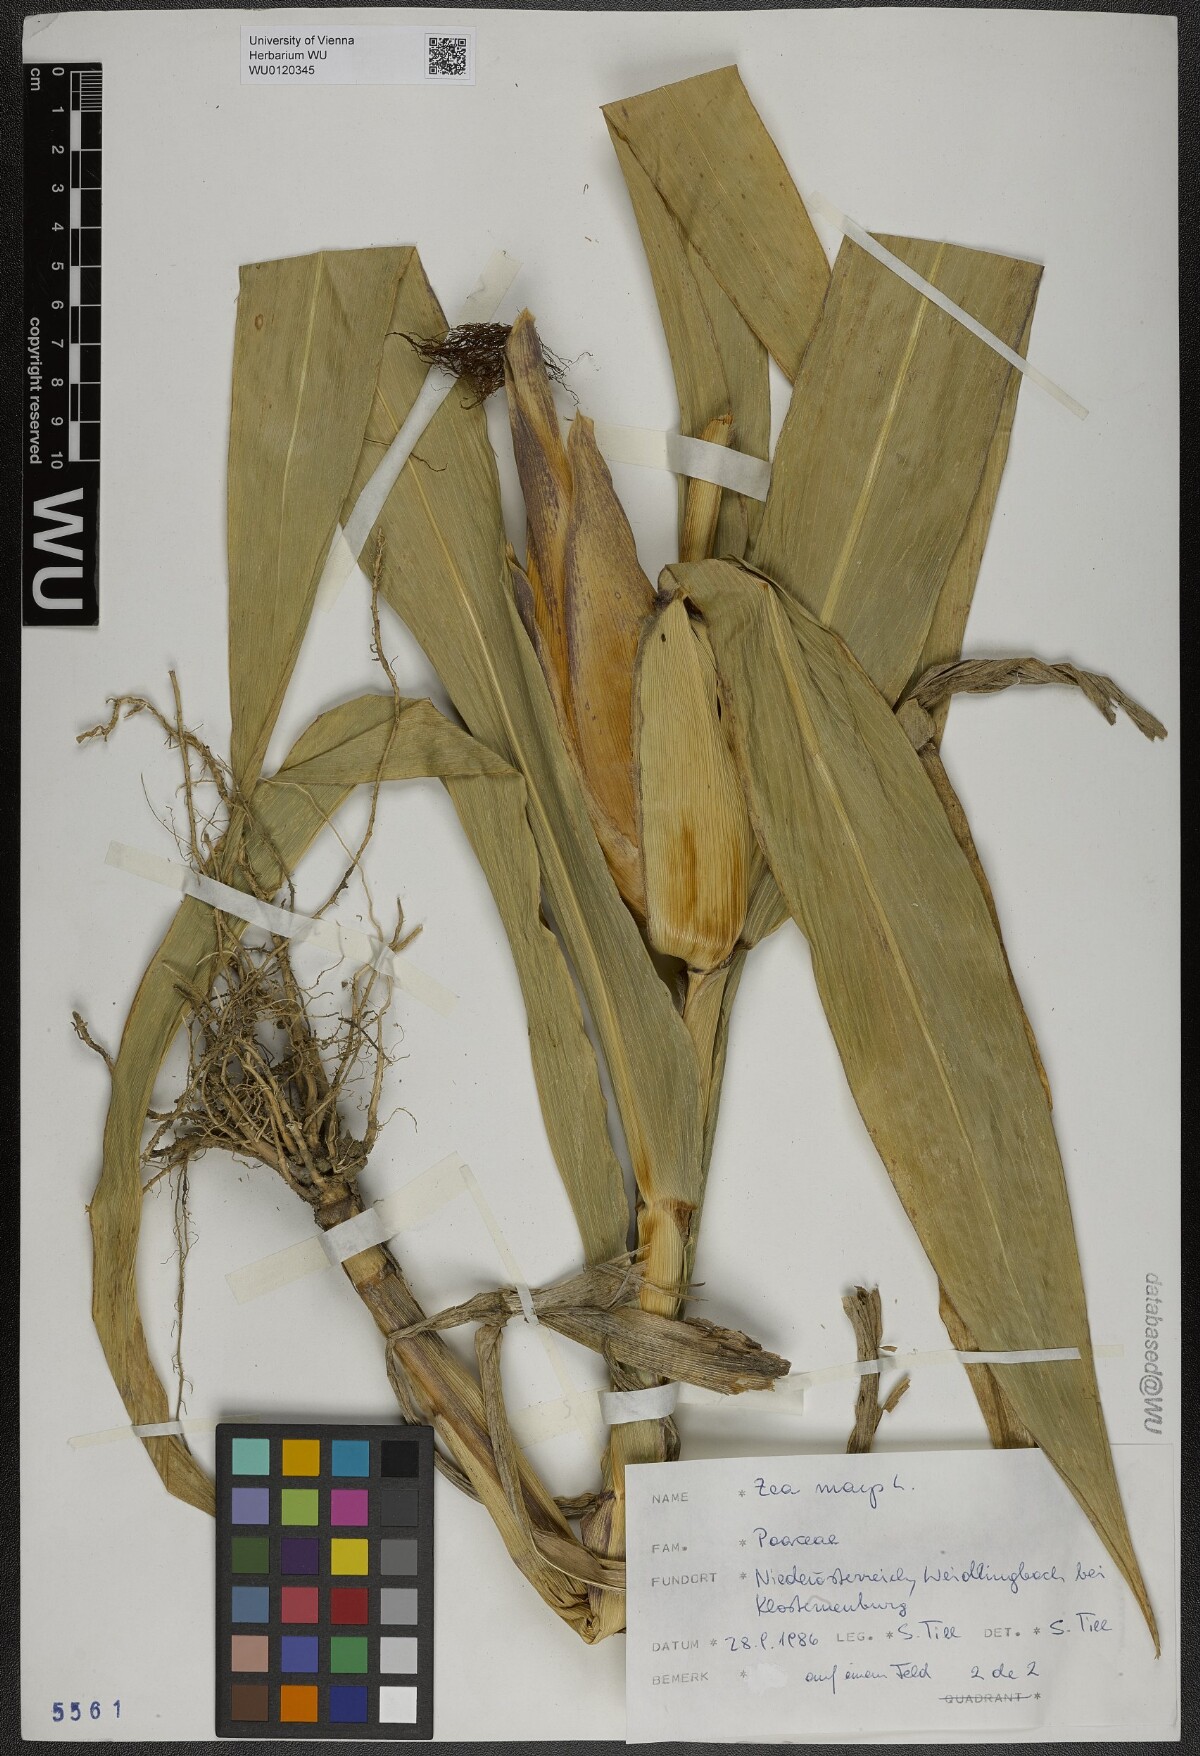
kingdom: Plantae
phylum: Tracheophyta
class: Liliopsida
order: Poales
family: Poaceae
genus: Zea
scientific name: Zea mays
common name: Maize
